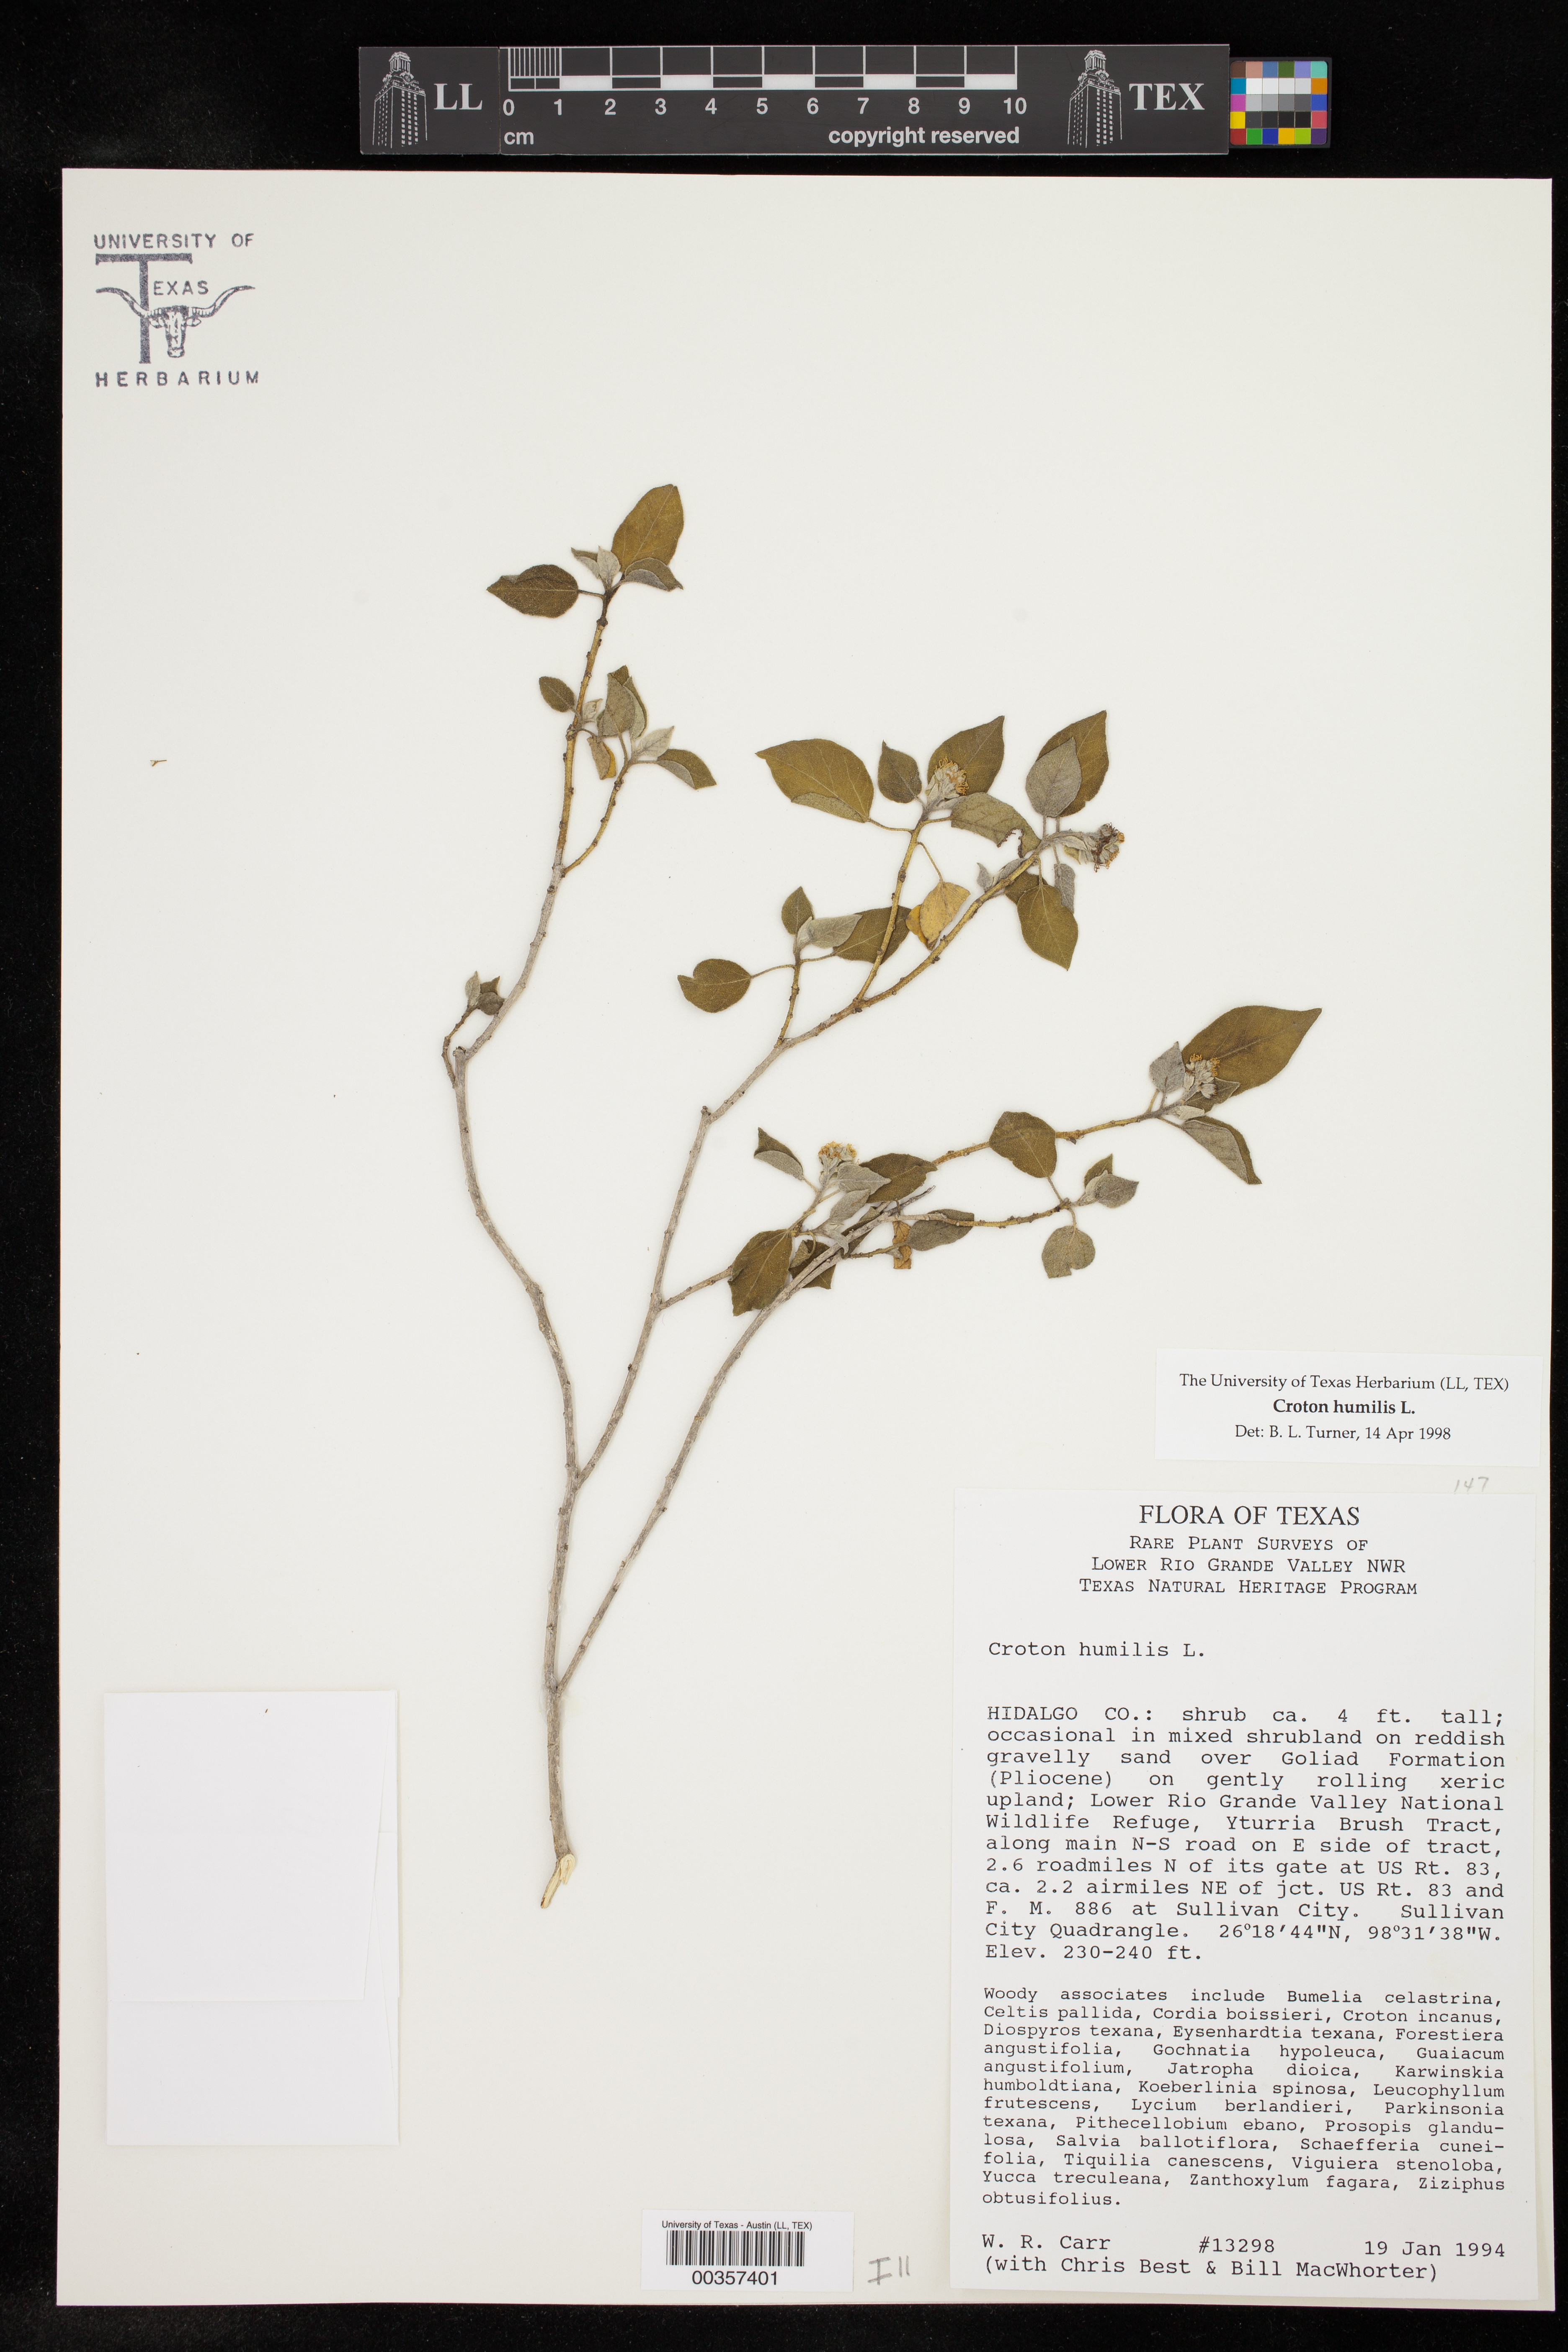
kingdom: Plantae
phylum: Tracheophyta
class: Magnoliopsida
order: Malpighiales
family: Euphorbiaceae
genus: Croton
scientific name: Croton humilis
